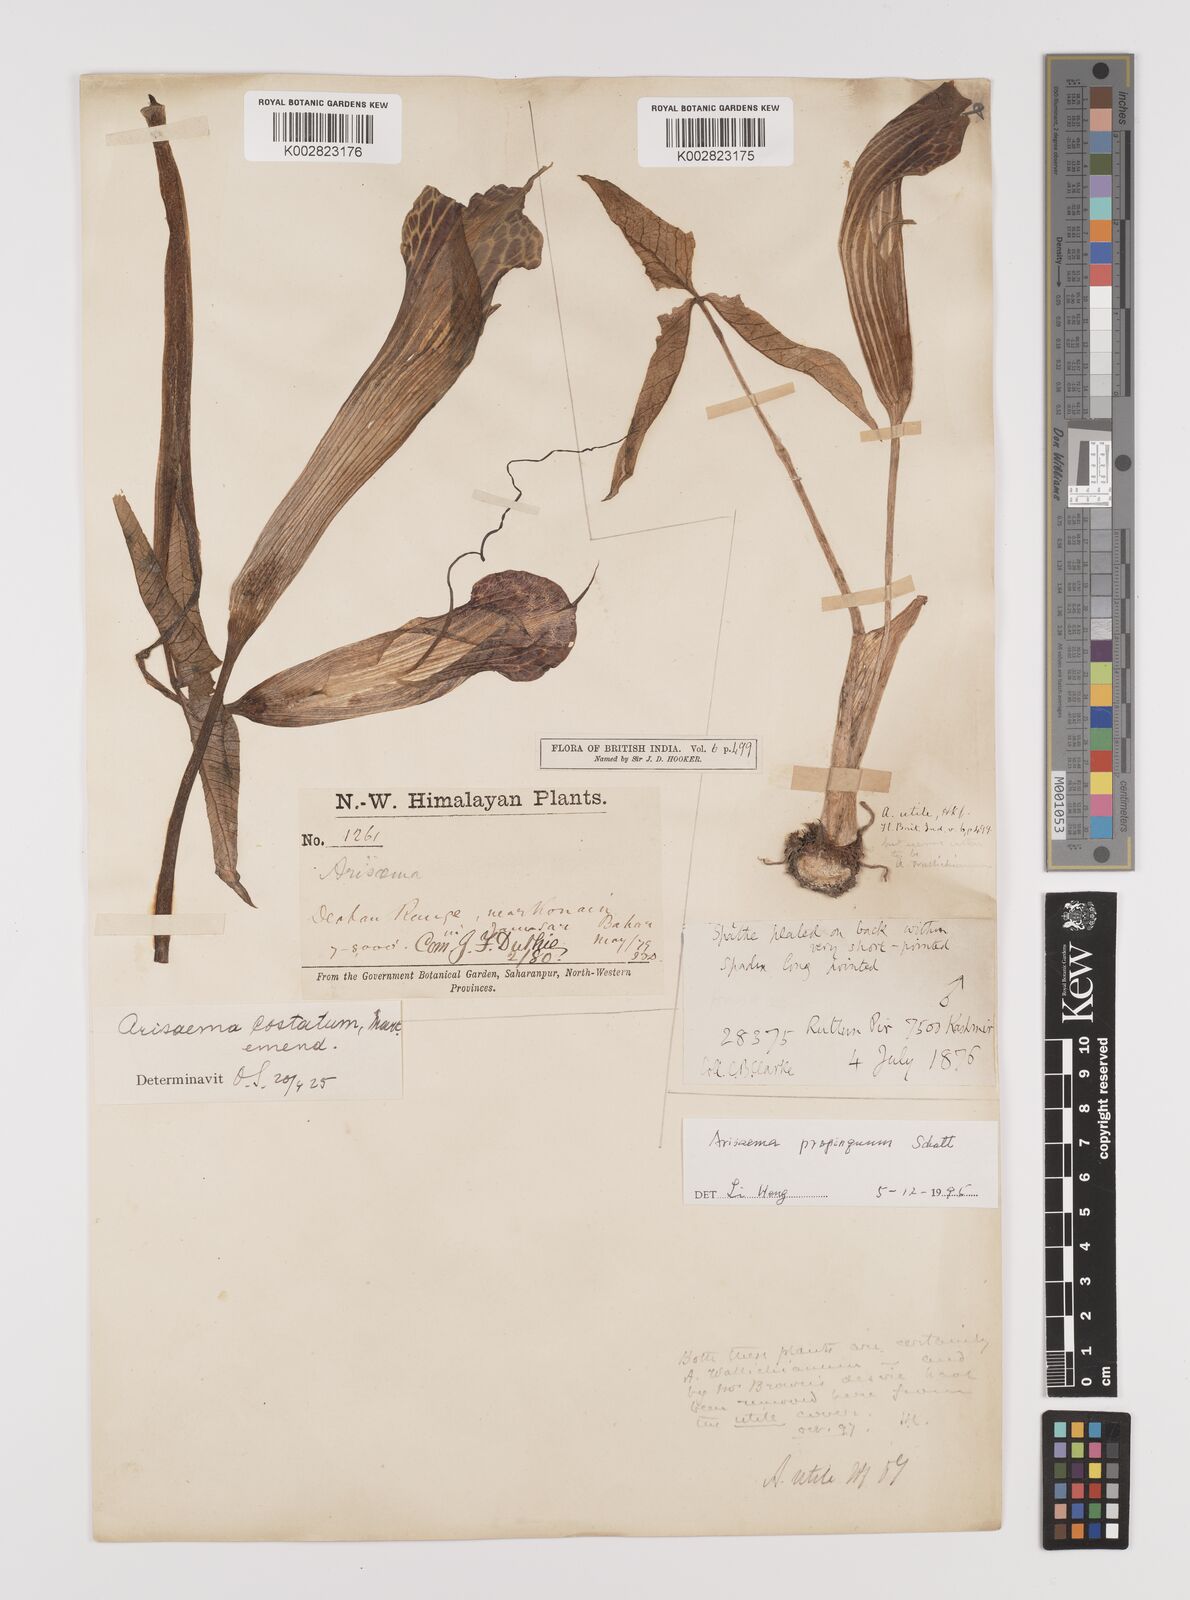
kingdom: Plantae
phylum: Tracheophyta
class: Liliopsida
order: Alismatales
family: Araceae
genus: Arisaema
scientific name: Arisaema propinquum
